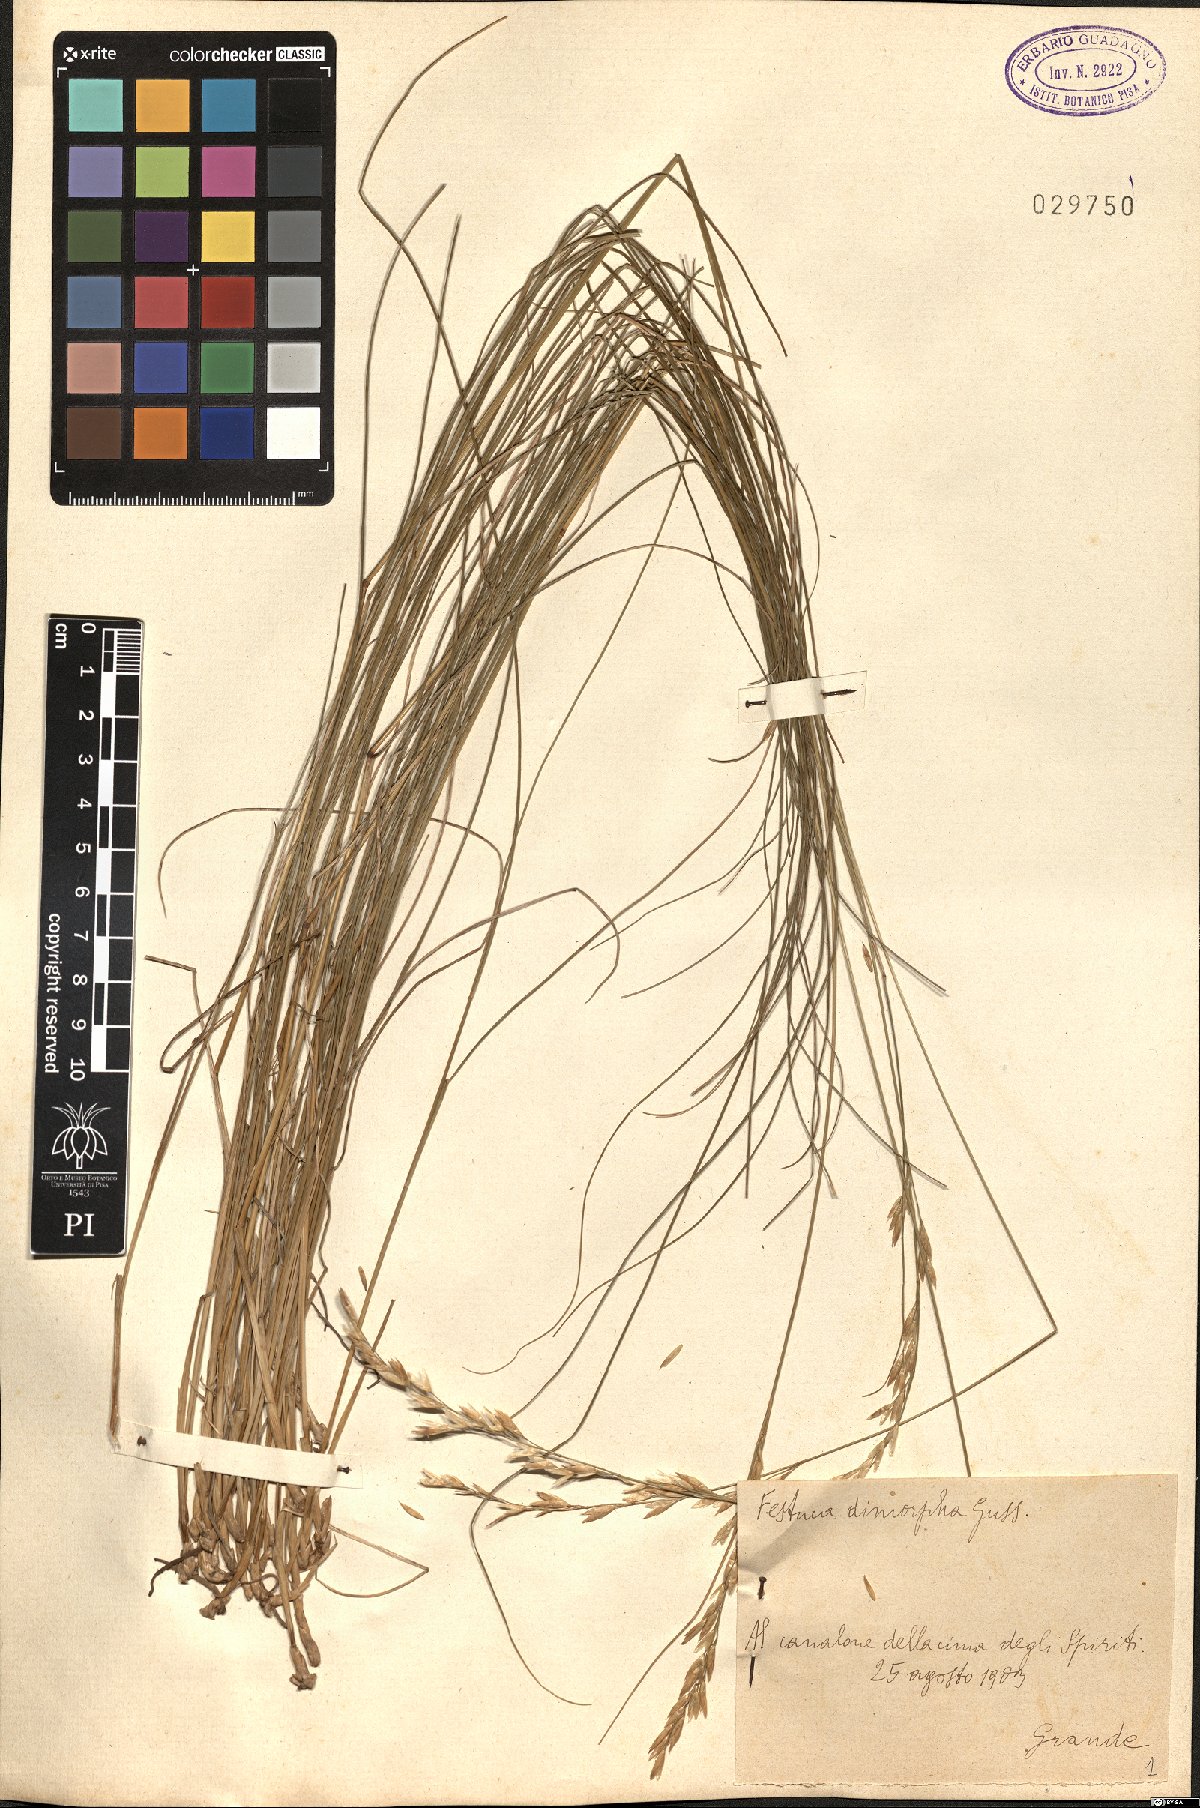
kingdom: Plantae
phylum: Tracheophyta
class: Liliopsida
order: Poales
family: Poaceae
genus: Festuca
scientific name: Festuca dimorpha
